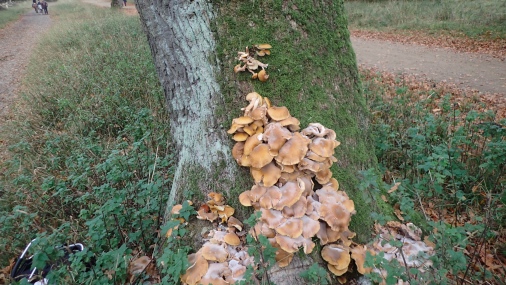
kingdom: Fungi
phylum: Basidiomycota
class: Agaricomycetes
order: Agaricales
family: Physalacriaceae
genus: Armillaria
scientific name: Armillaria mellea
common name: ægte honningsvamp
